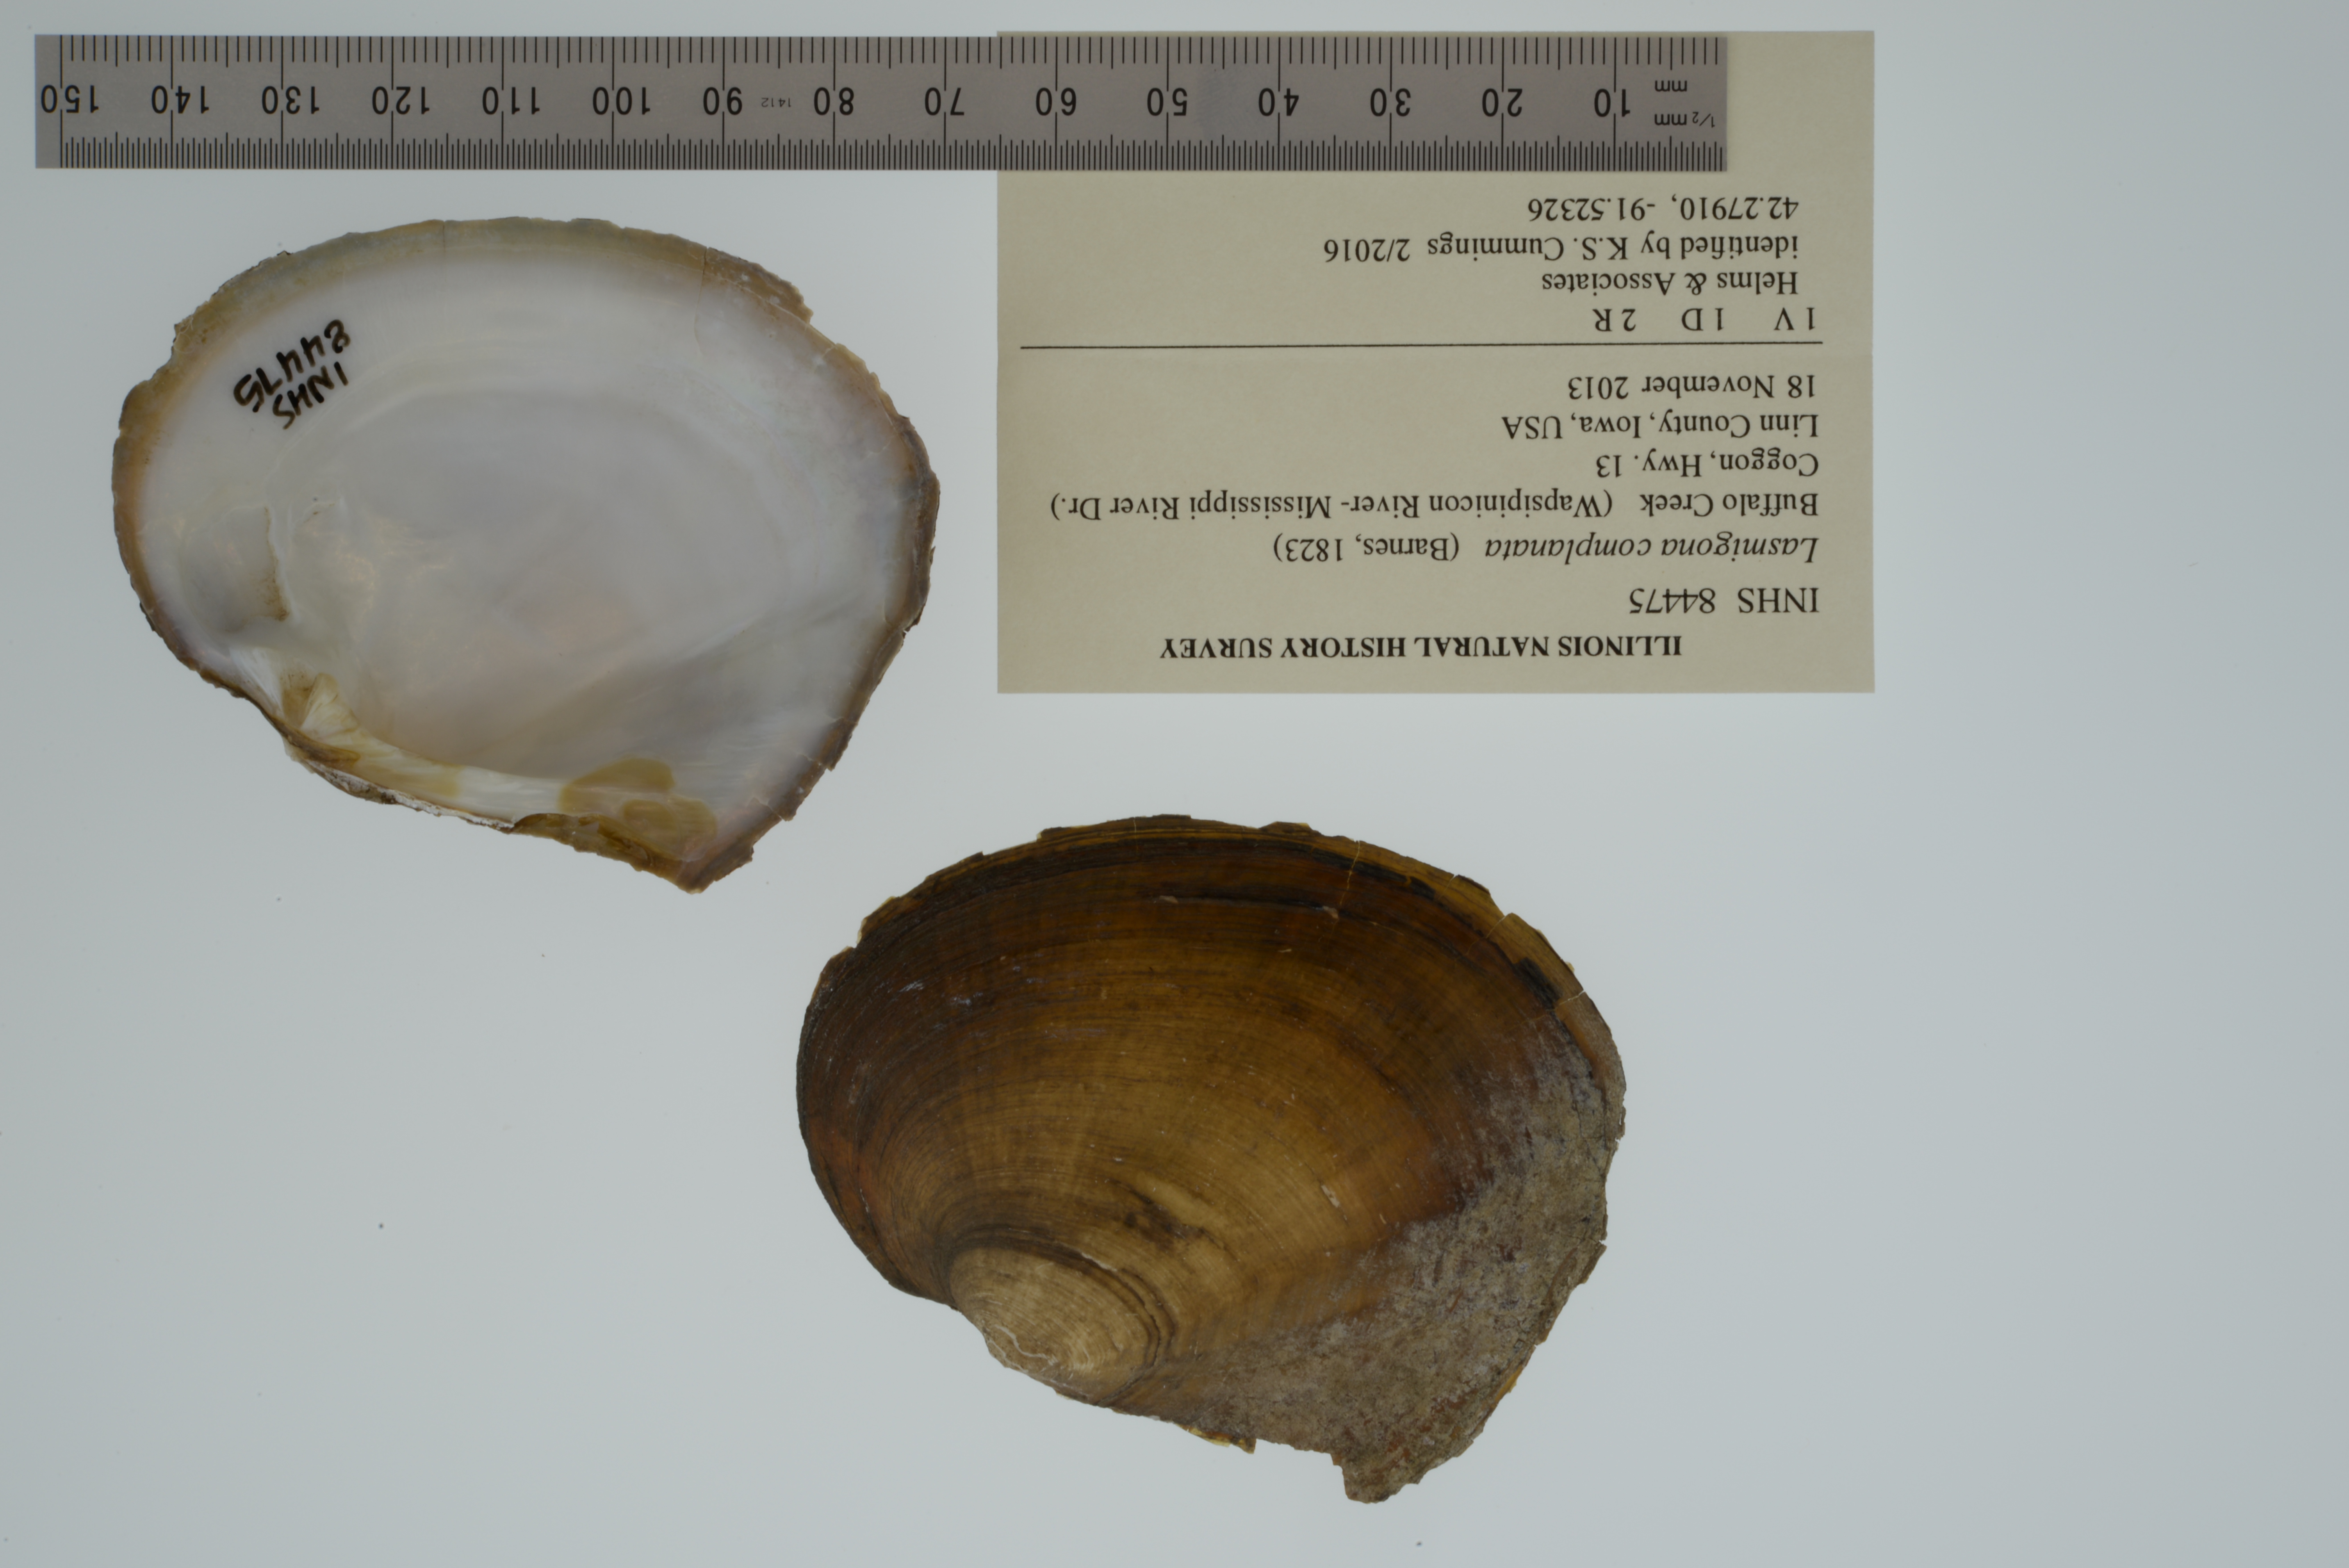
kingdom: Animalia
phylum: Mollusca
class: Bivalvia
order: Unionida
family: Unionidae
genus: Lasmigona
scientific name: Lasmigona complanata
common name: White heelsplitter
